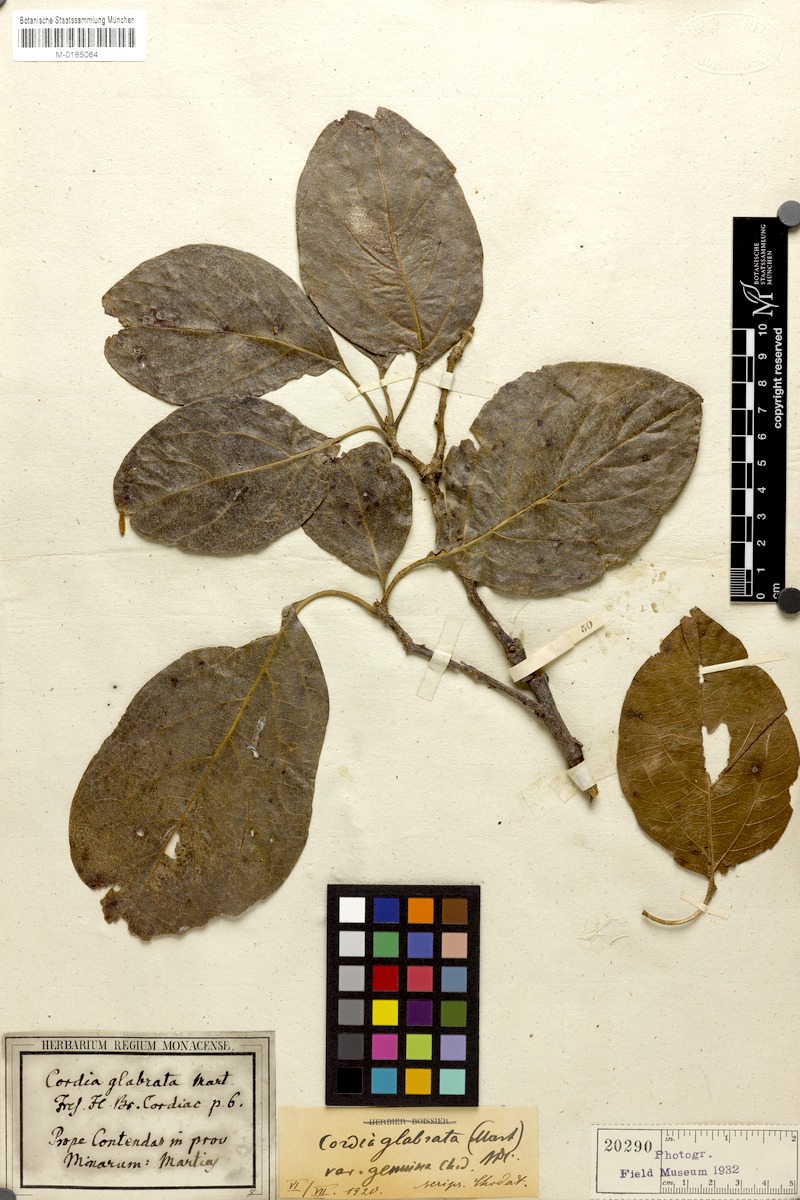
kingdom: Plantae
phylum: Tracheophyta
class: Magnoliopsida
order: Boraginales
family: Cordiaceae
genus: Cordia
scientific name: Cordia glabrata
